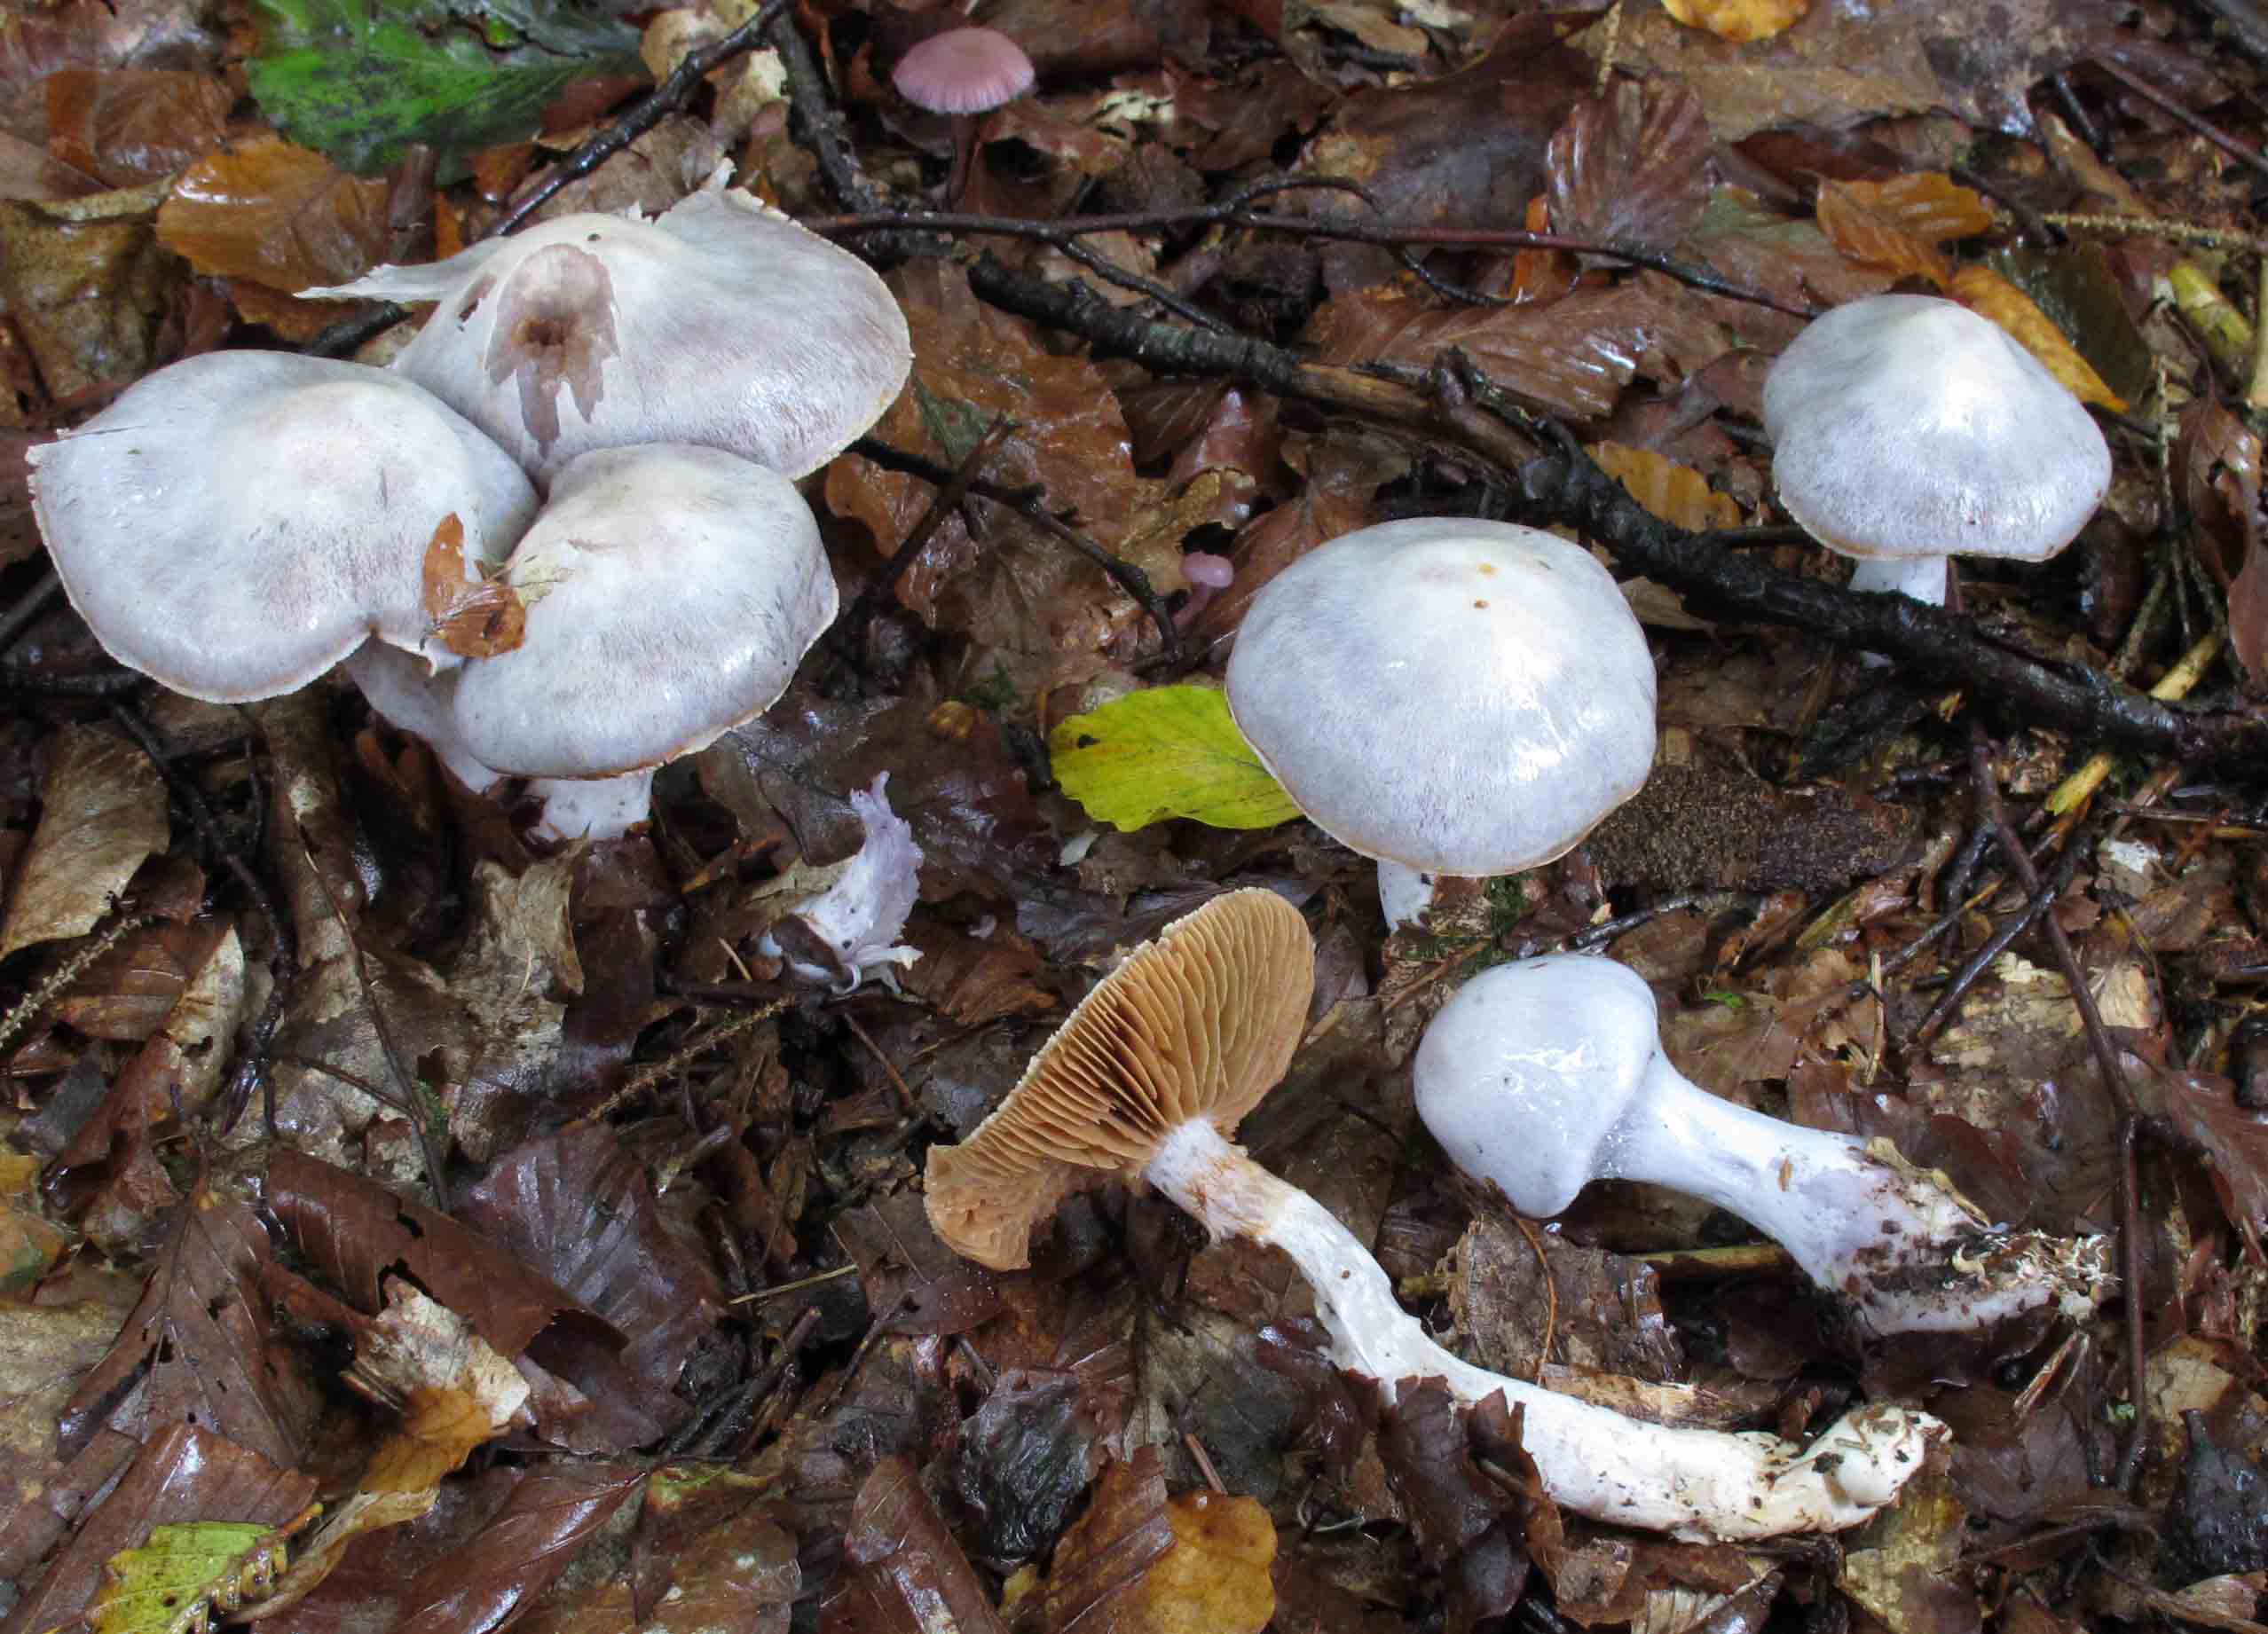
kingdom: Fungi
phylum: Basidiomycota
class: Agaricomycetes
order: Agaricales
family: Cortinariaceae
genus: Cortinarius
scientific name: Cortinarius alboviolaceus
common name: lysviolet slørhat
